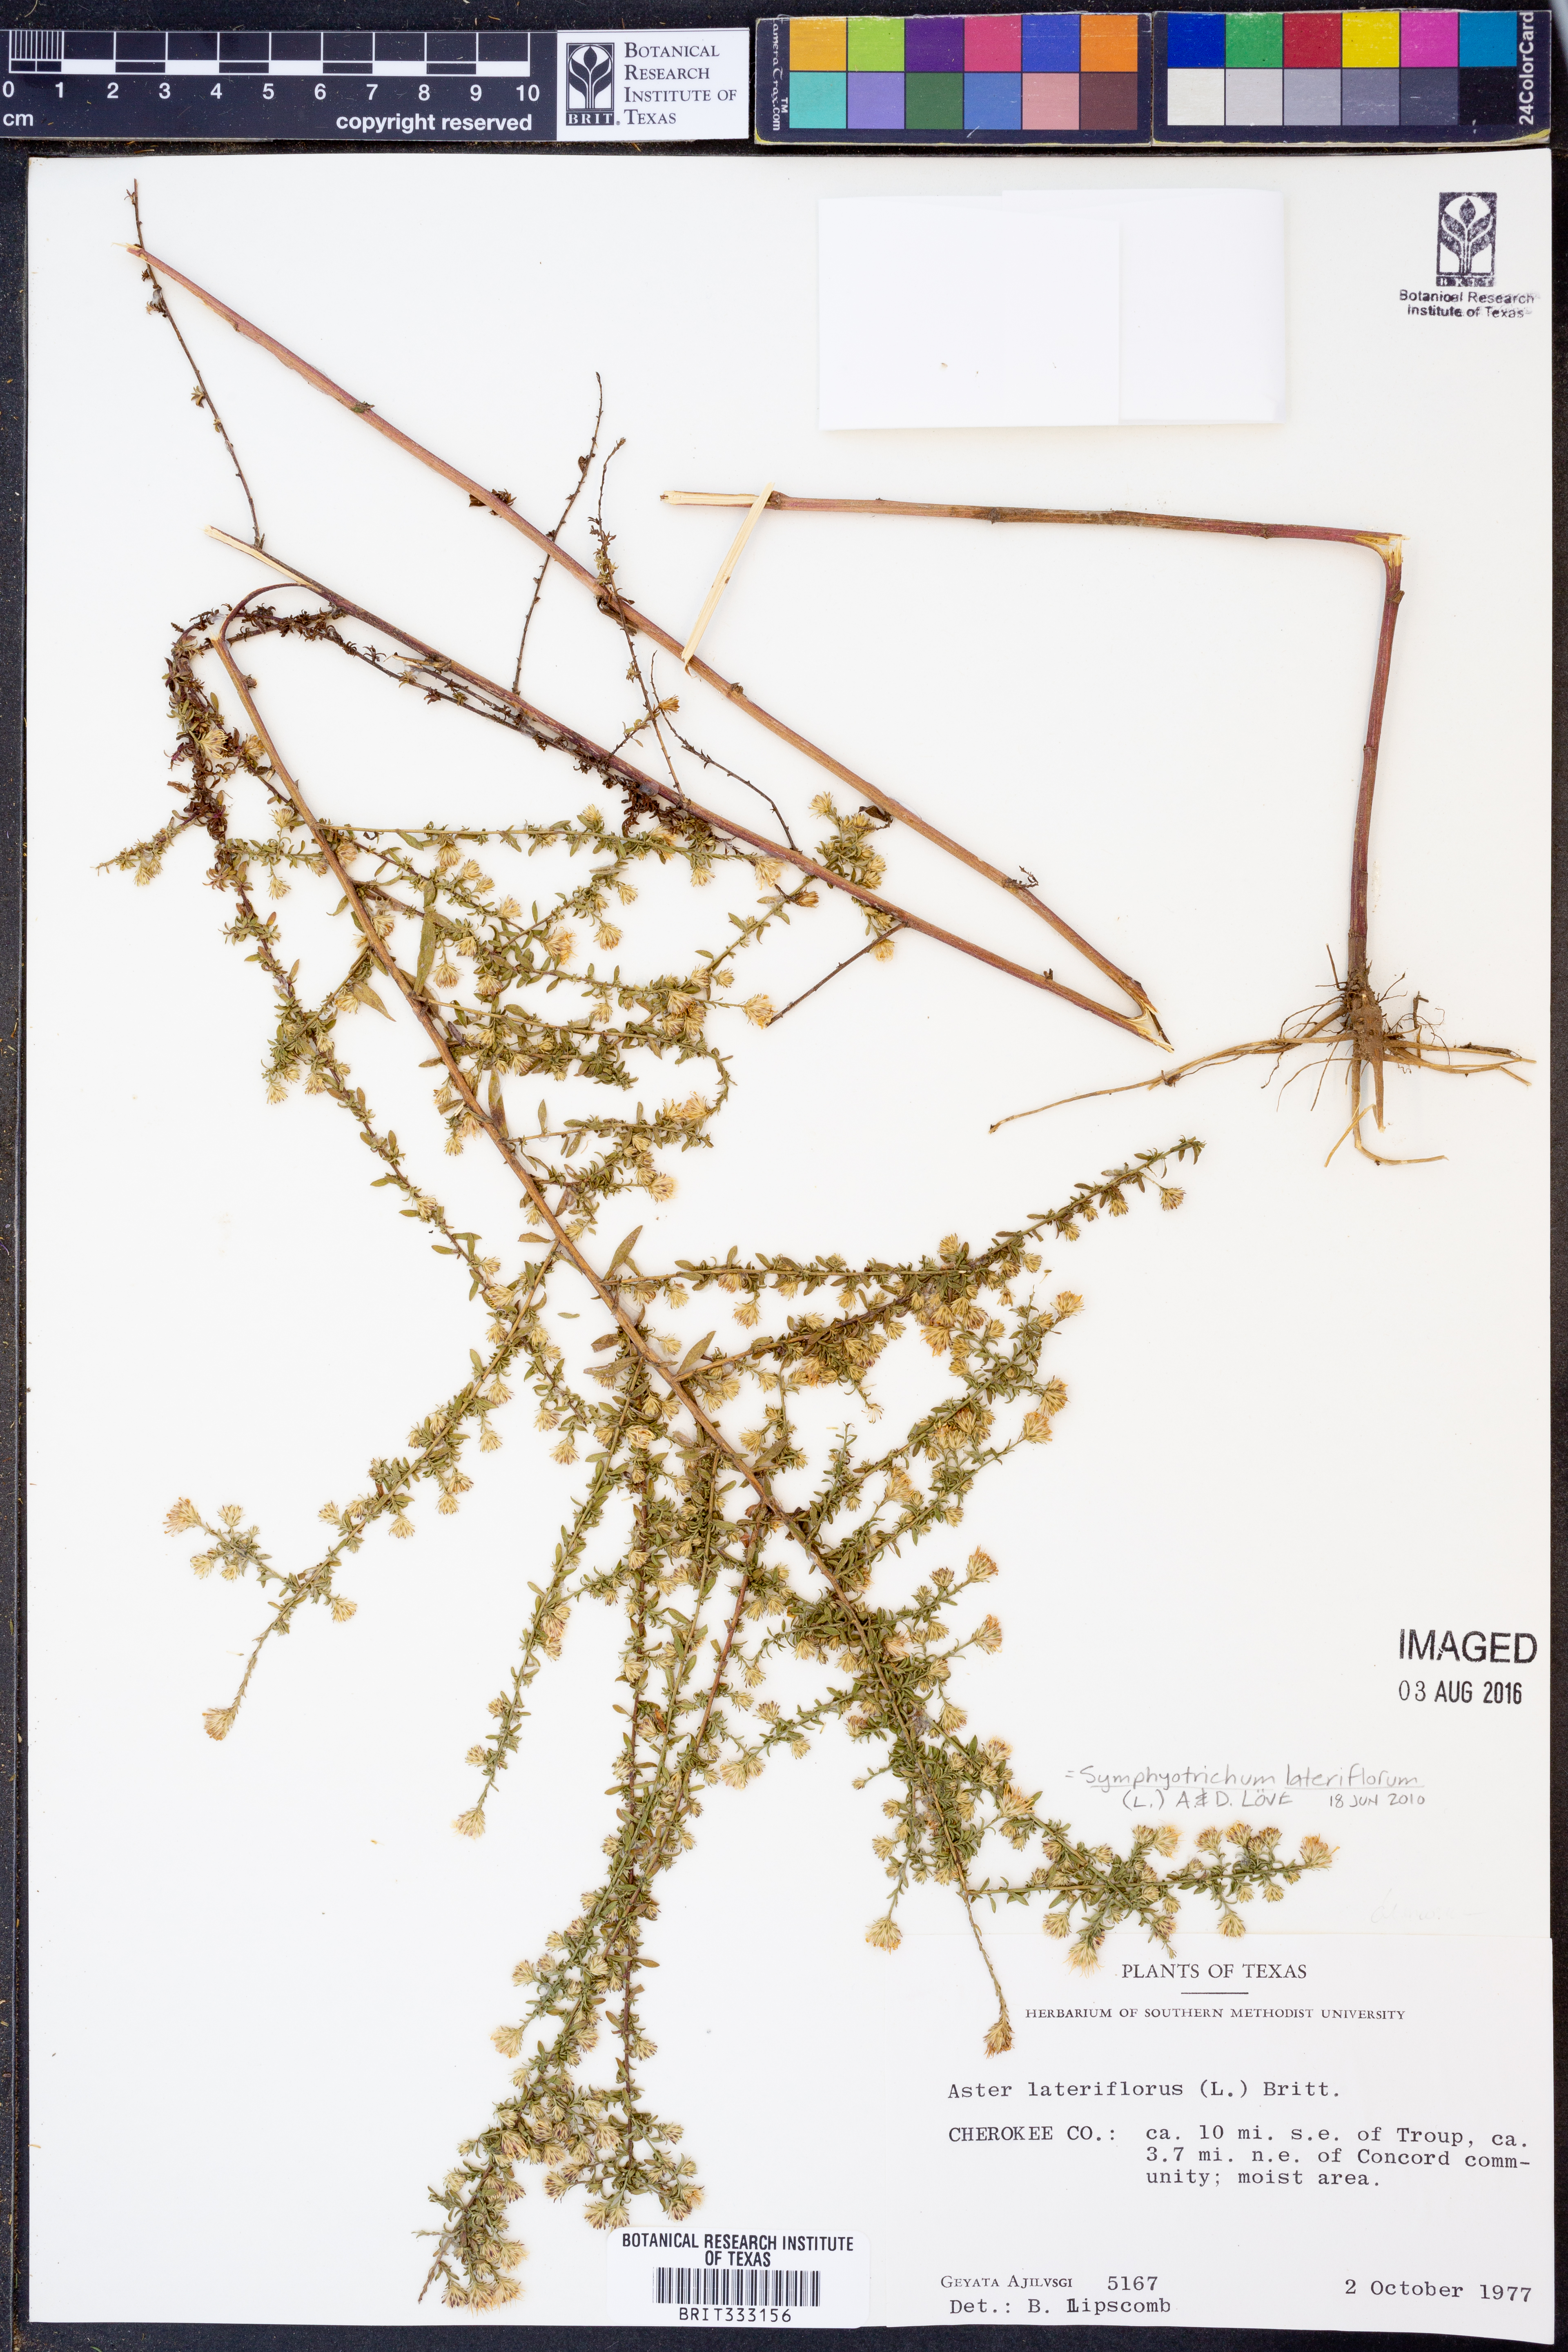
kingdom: Plantae
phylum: Tracheophyta
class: Magnoliopsida
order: Asterales
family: Asteraceae
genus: Symphyotrichum
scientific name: Symphyotrichum lateriflorum
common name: Calico aster
